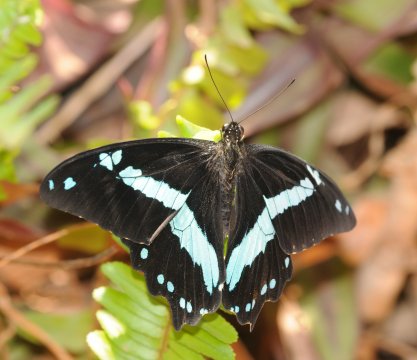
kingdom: Animalia
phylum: Arthropoda
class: Insecta
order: Lepidoptera
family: Papilionidae
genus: Papilio
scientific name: Papilio nireus
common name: Narrow Green-banded Swallowtail
